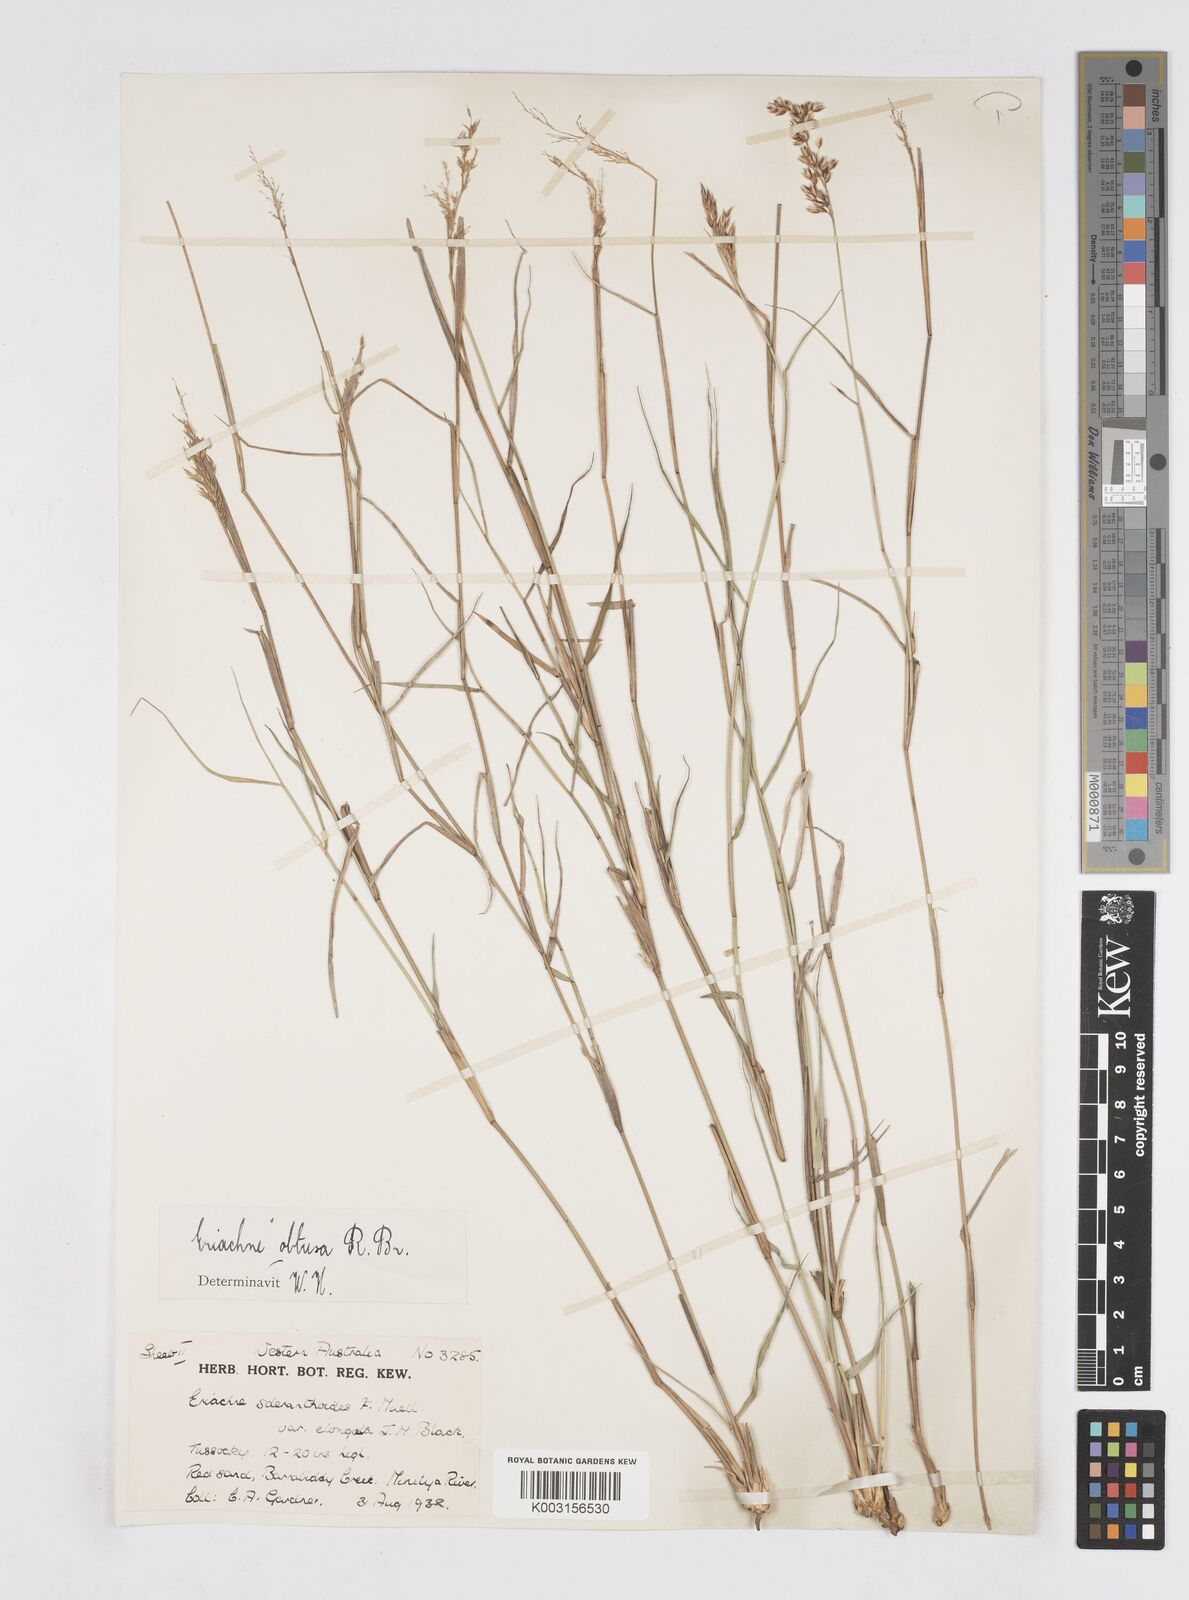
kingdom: Plantae
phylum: Tracheophyta
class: Liliopsida
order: Poales
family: Poaceae
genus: Eriachne
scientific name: Eriachne obtusa
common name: Northern wanderrie grass
